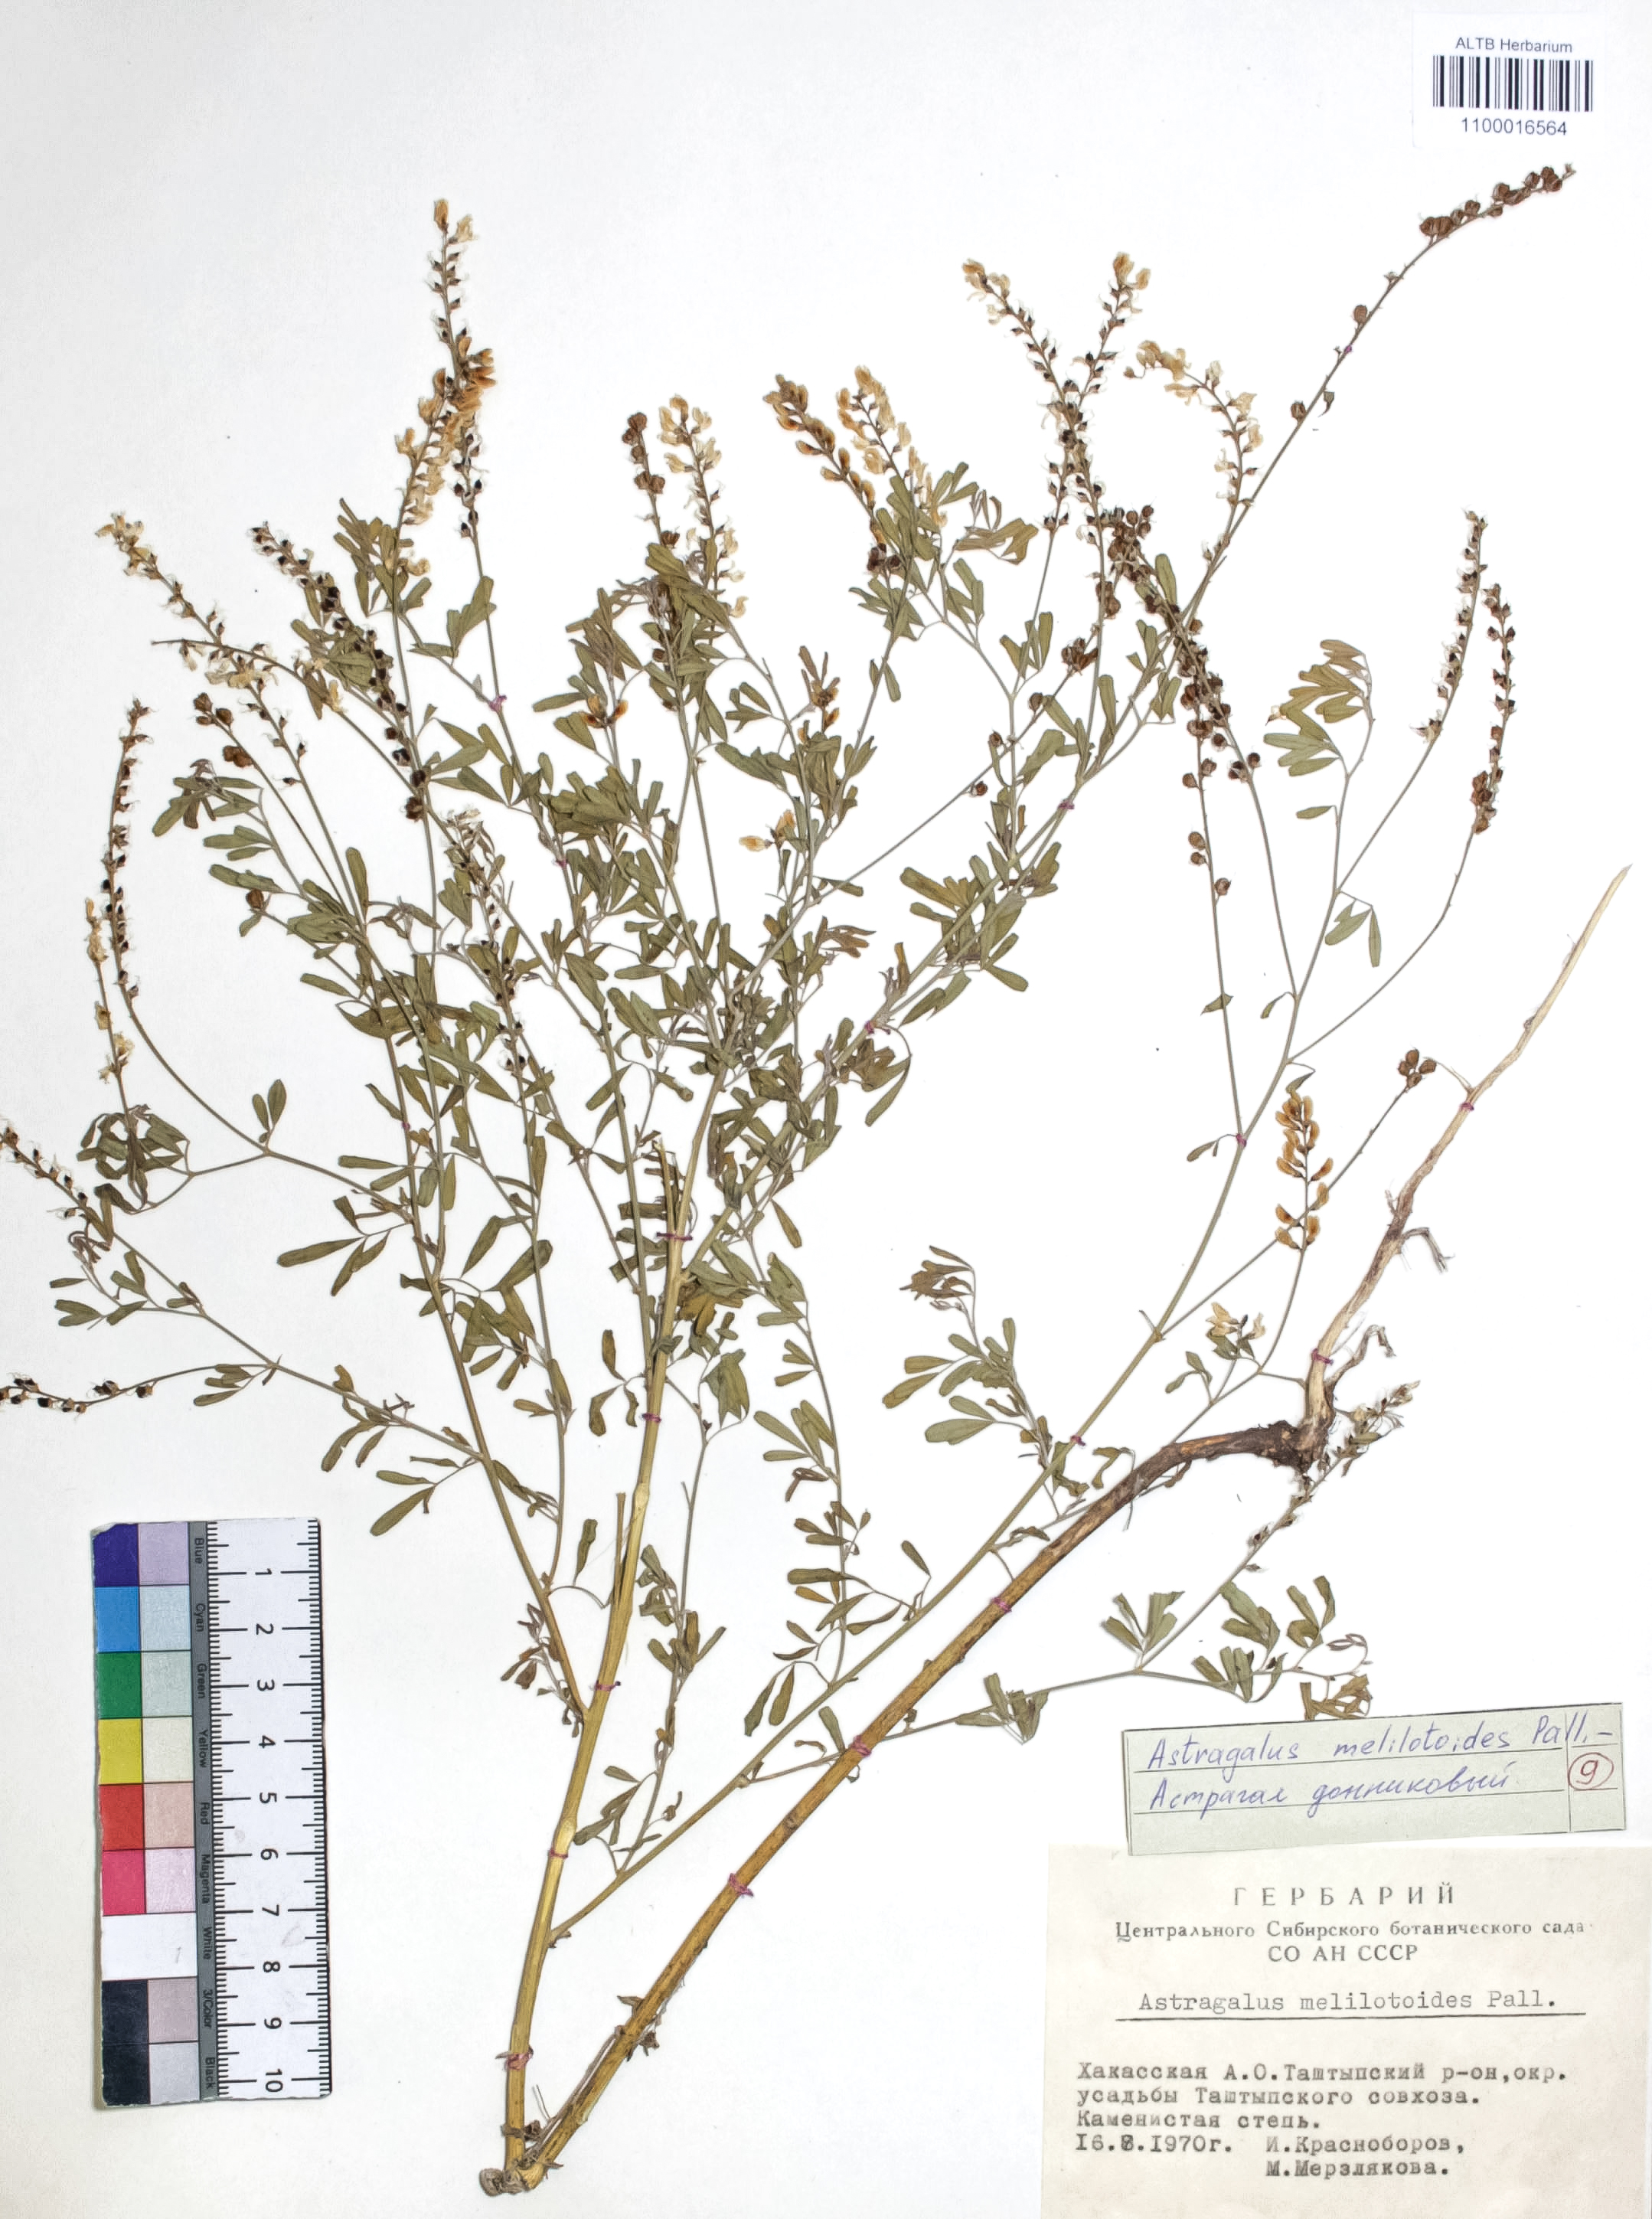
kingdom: Plantae
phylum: Tracheophyta
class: Magnoliopsida
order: Fabales
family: Fabaceae
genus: Astragalus
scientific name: Astragalus leptostachys
